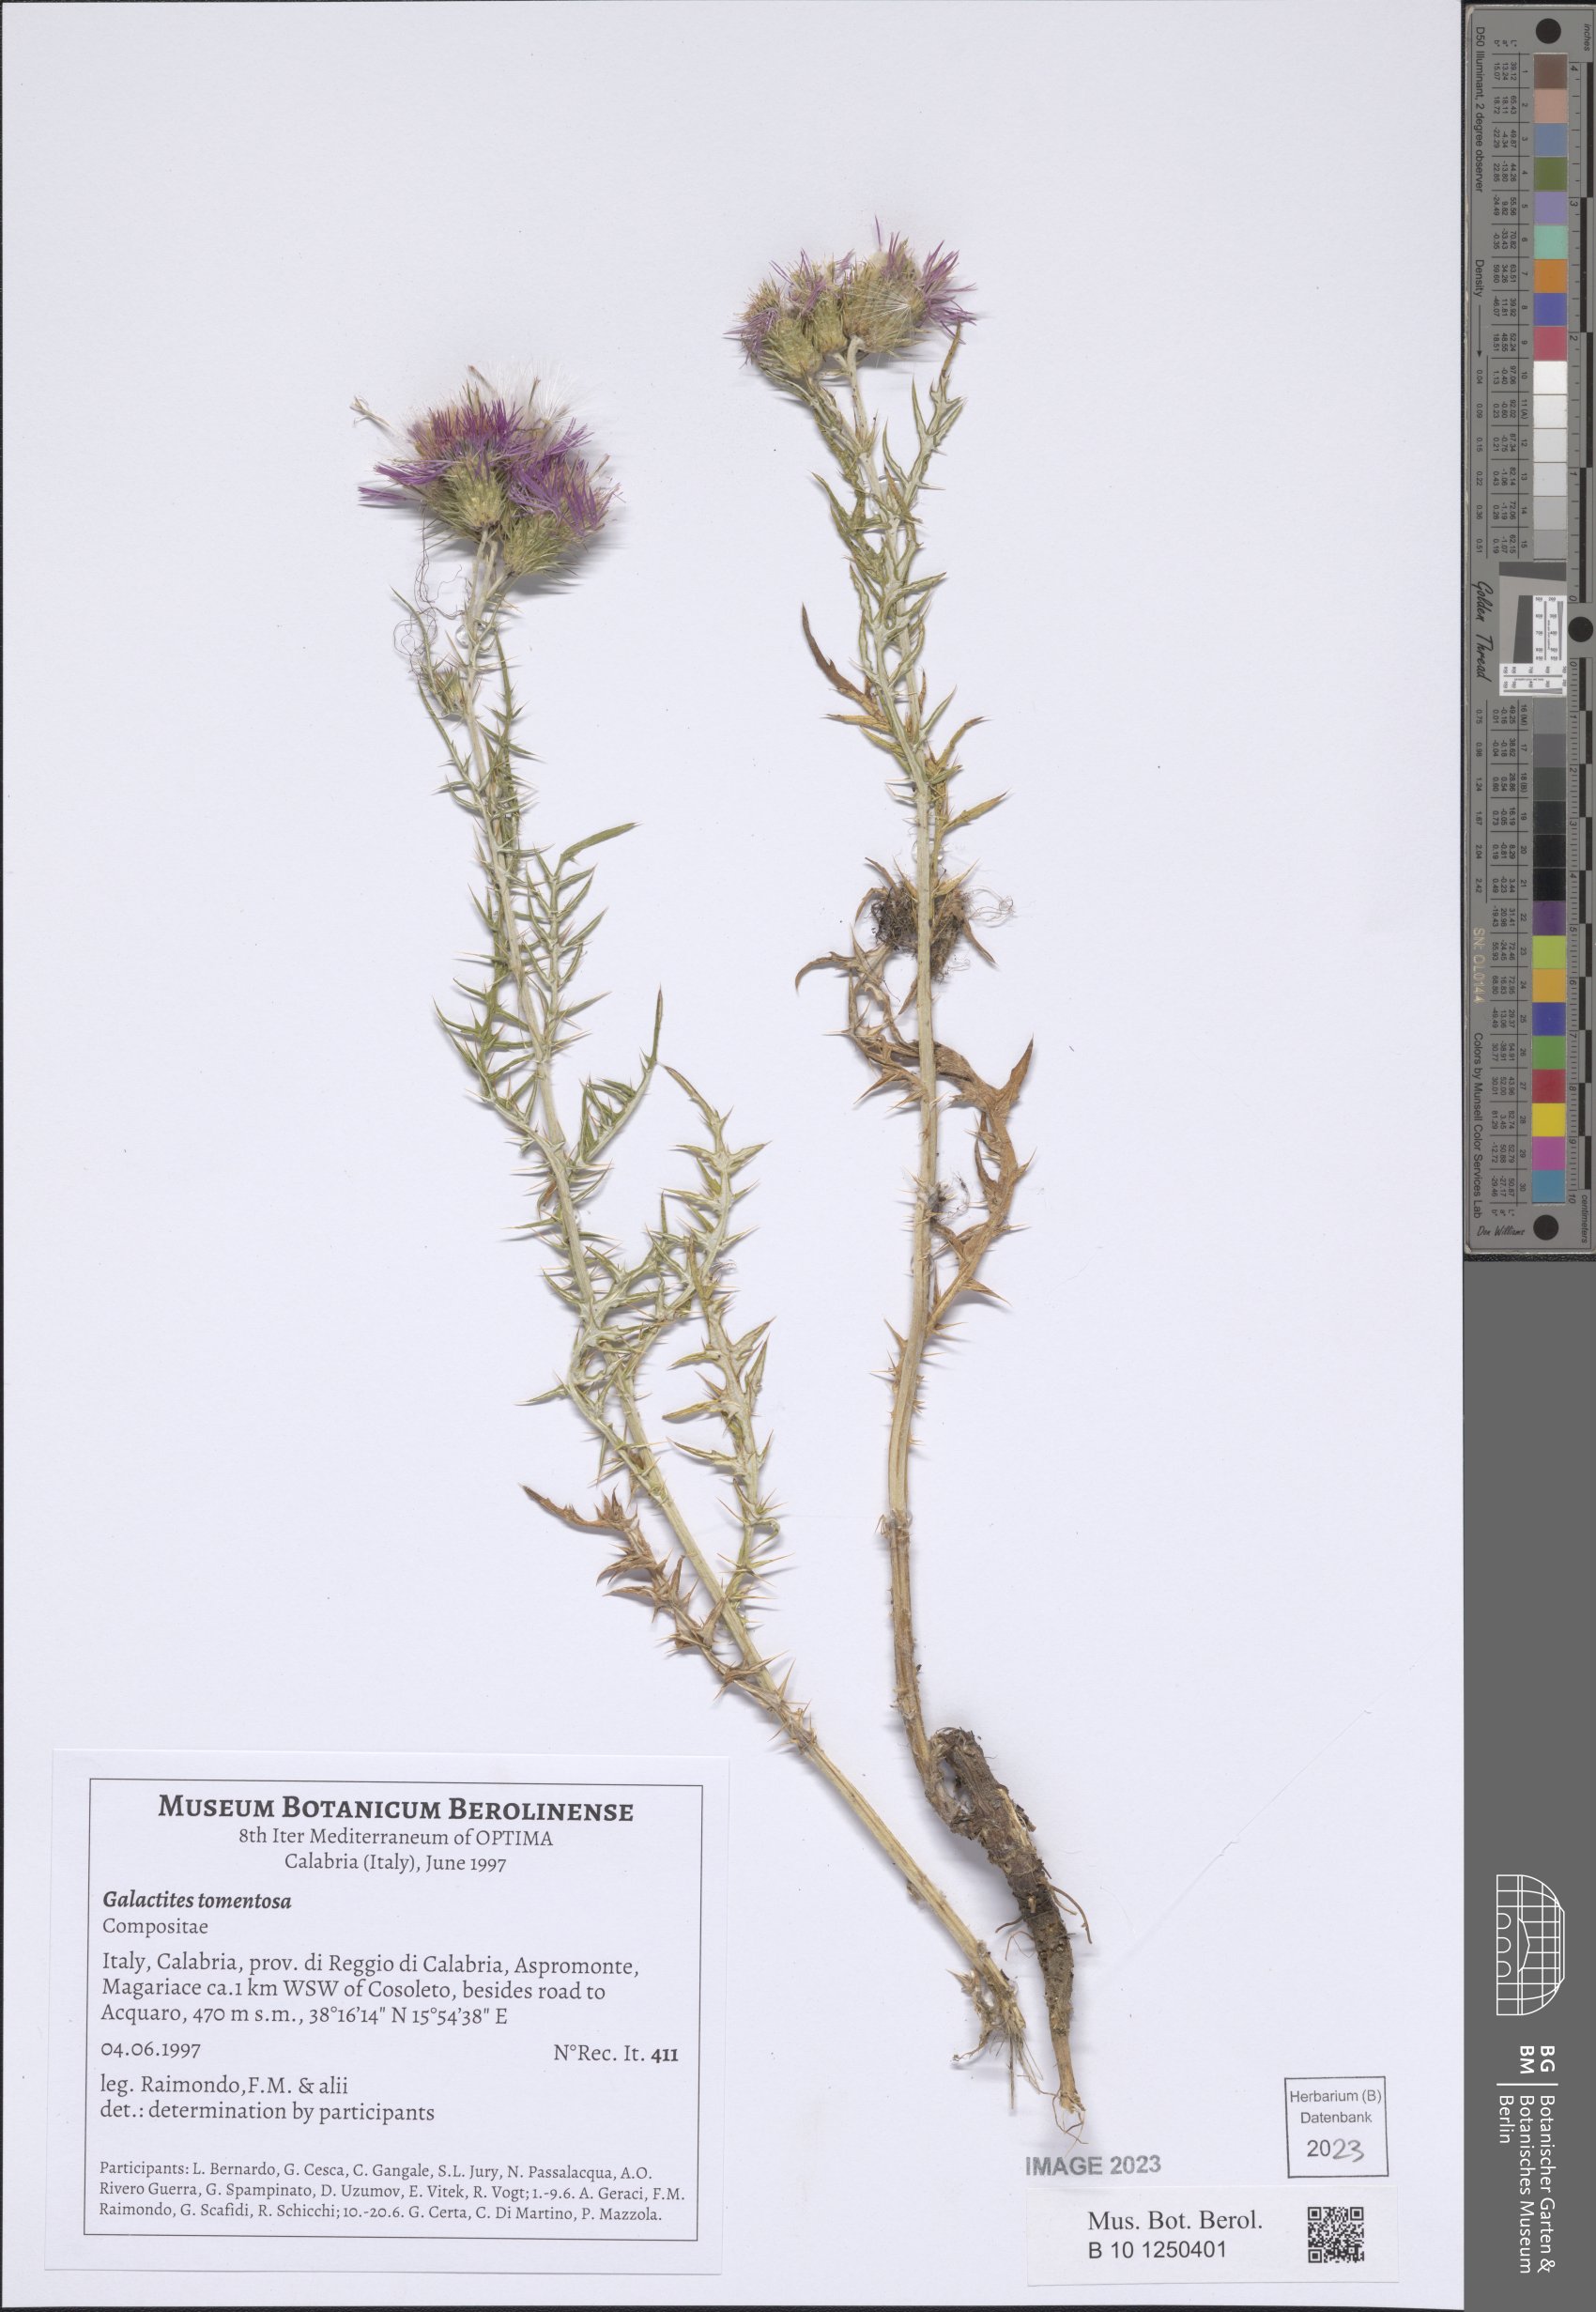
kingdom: Plantae
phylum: Tracheophyta
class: Magnoliopsida
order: Asterales
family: Asteraceae
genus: Galactites
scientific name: Galactites tomentosa
